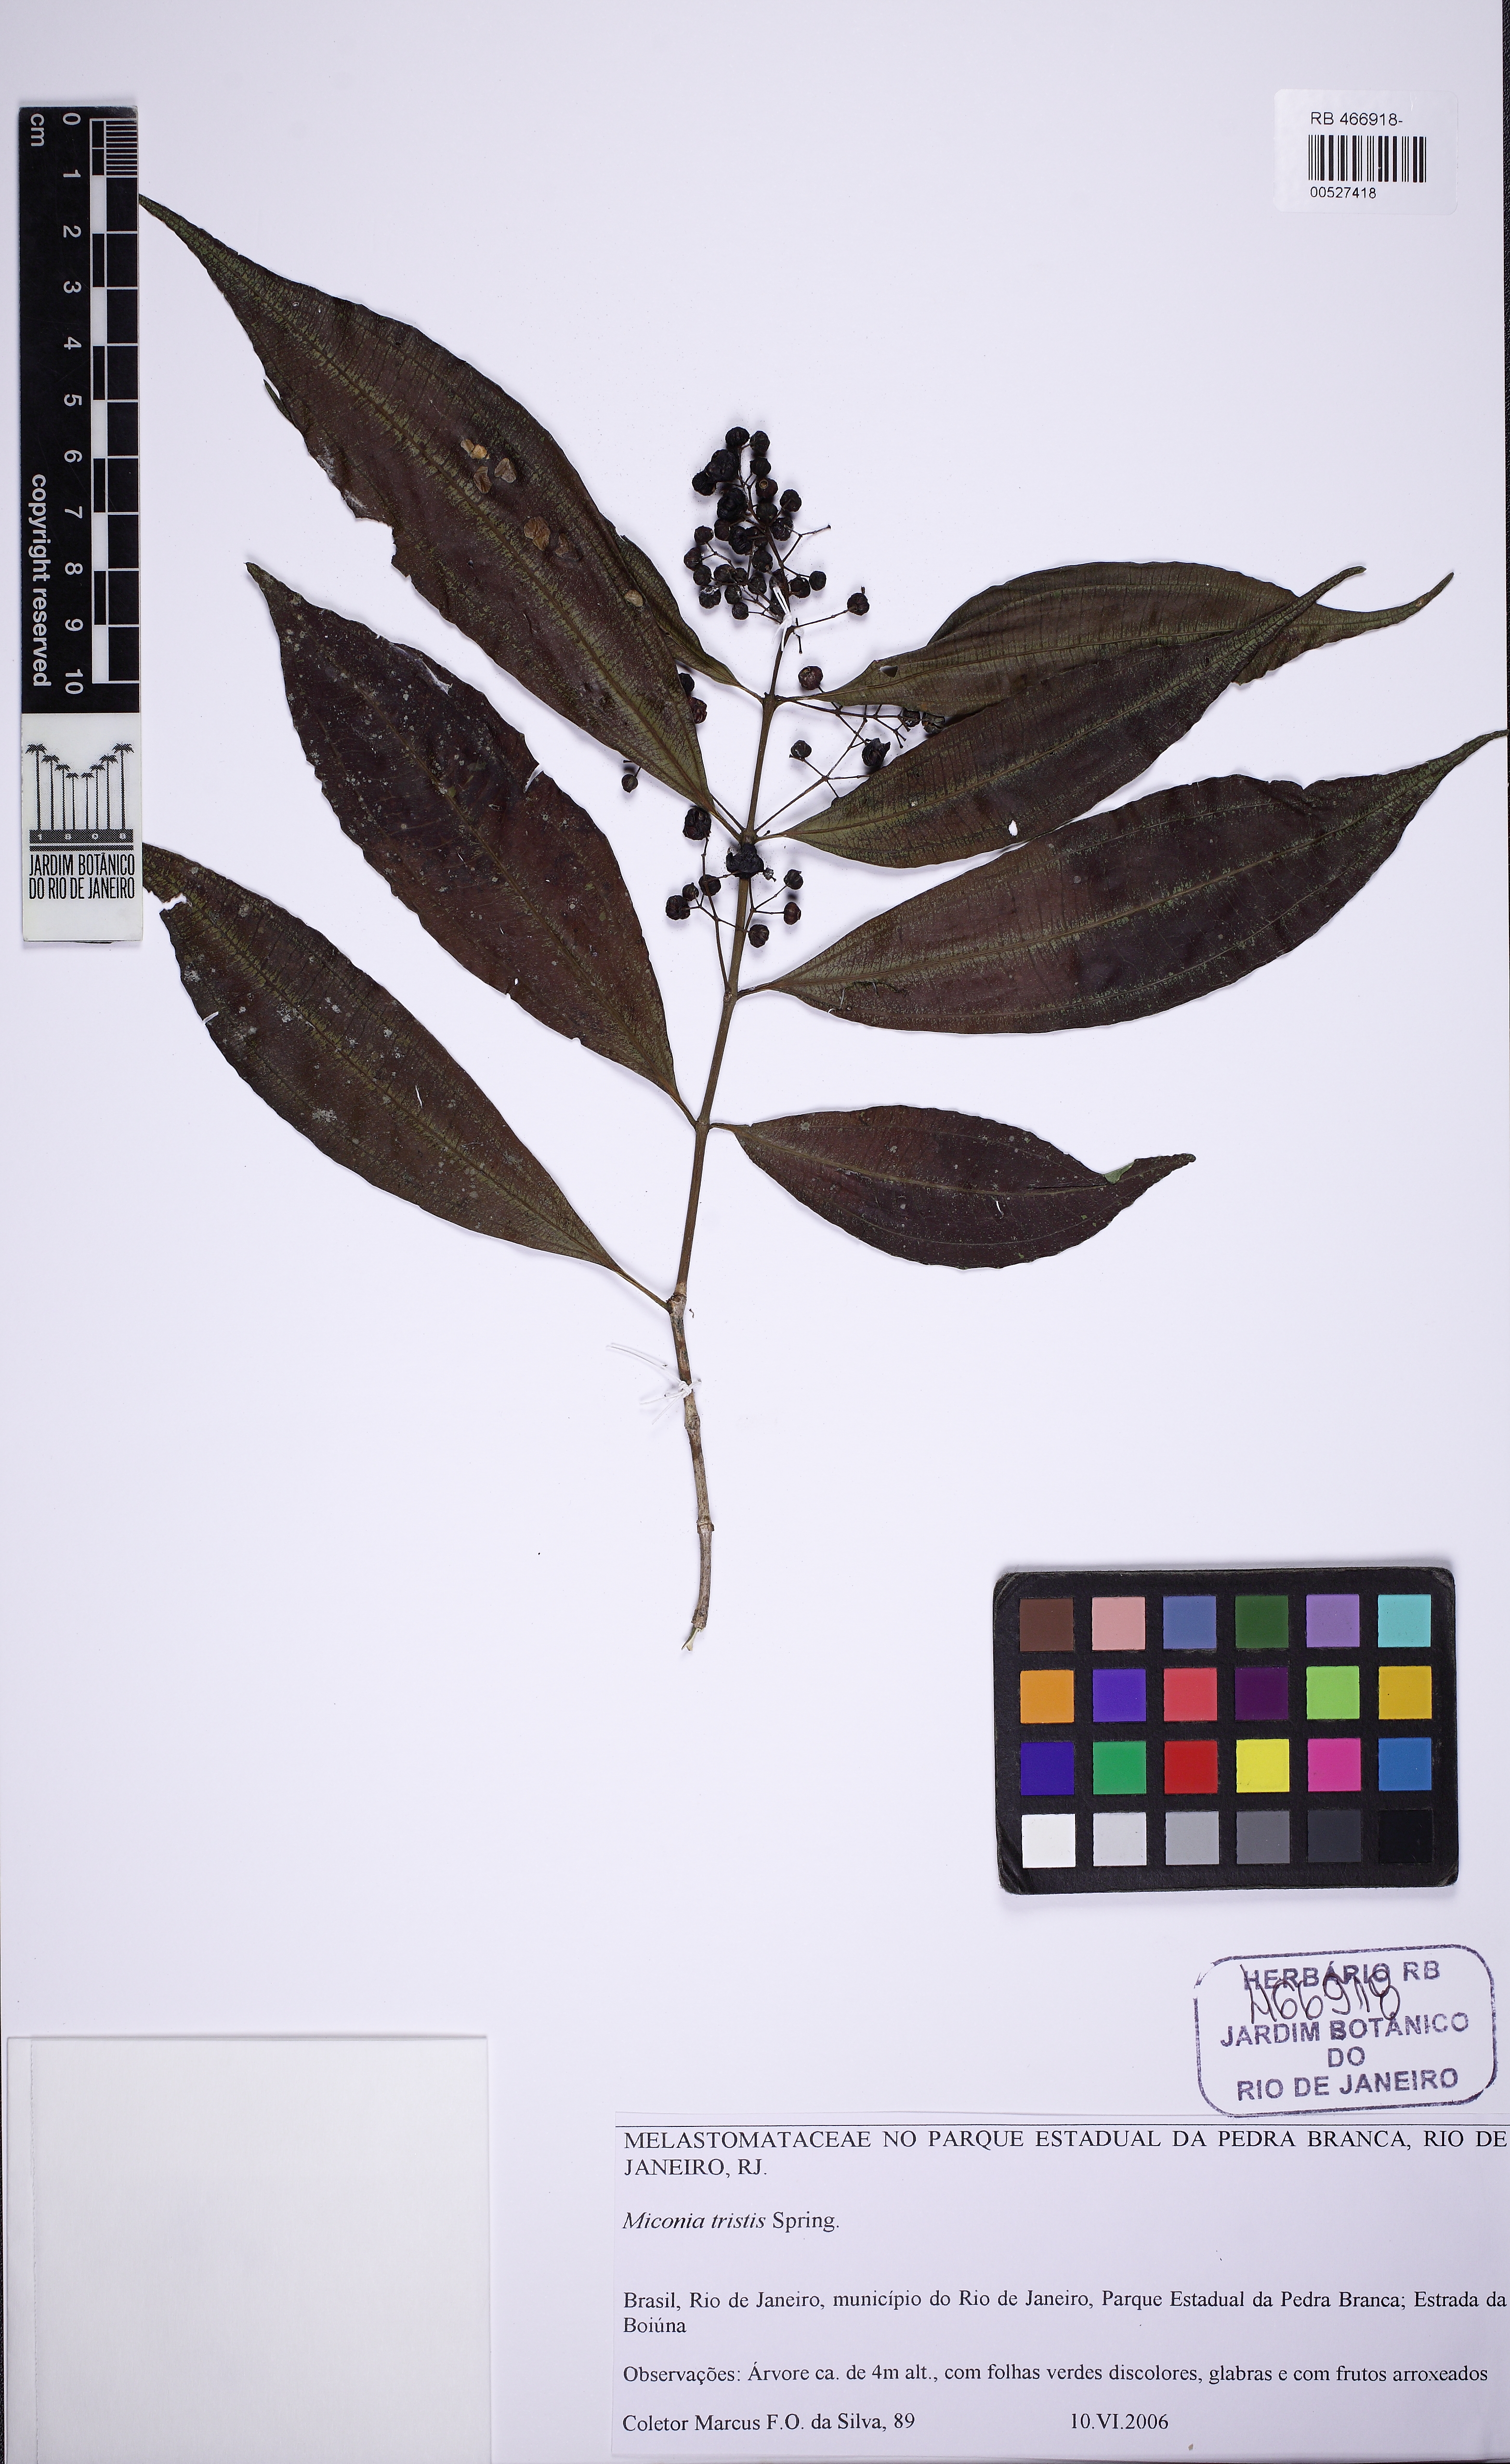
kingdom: Plantae
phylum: Tracheophyta
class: Magnoliopsida
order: Myrtales
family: Melastomataceae
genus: Miconia
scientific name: Miconia tristis
